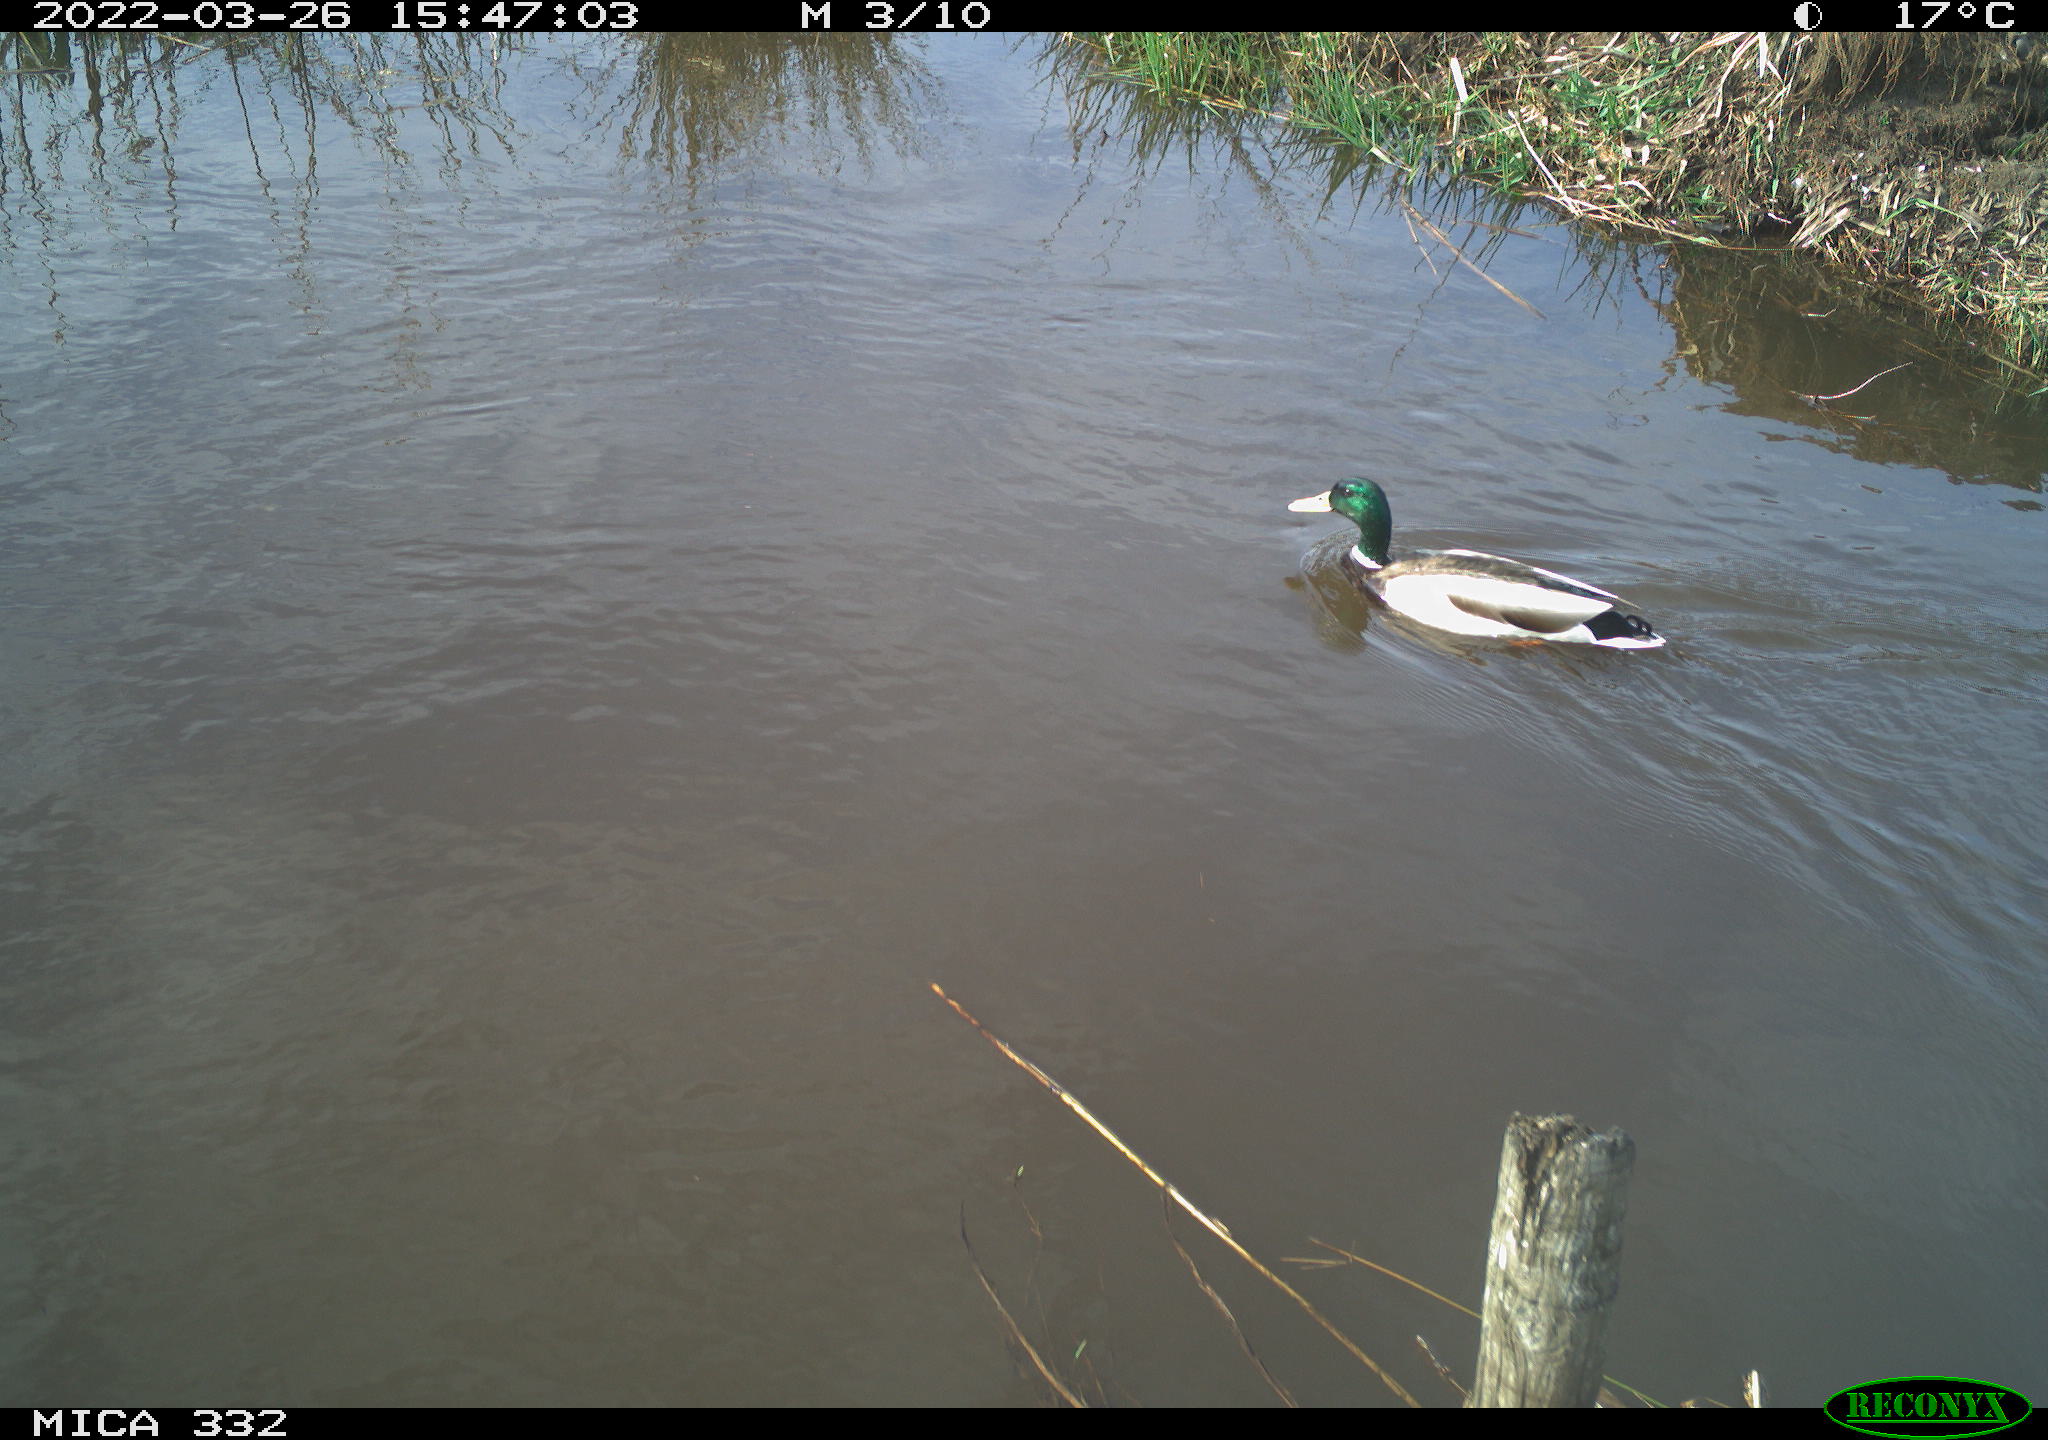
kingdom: Animalia
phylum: Chordata
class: Aves
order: Anseriformes
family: Anatidae
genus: Anas
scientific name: Anas platyrhynchos
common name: Mallard
